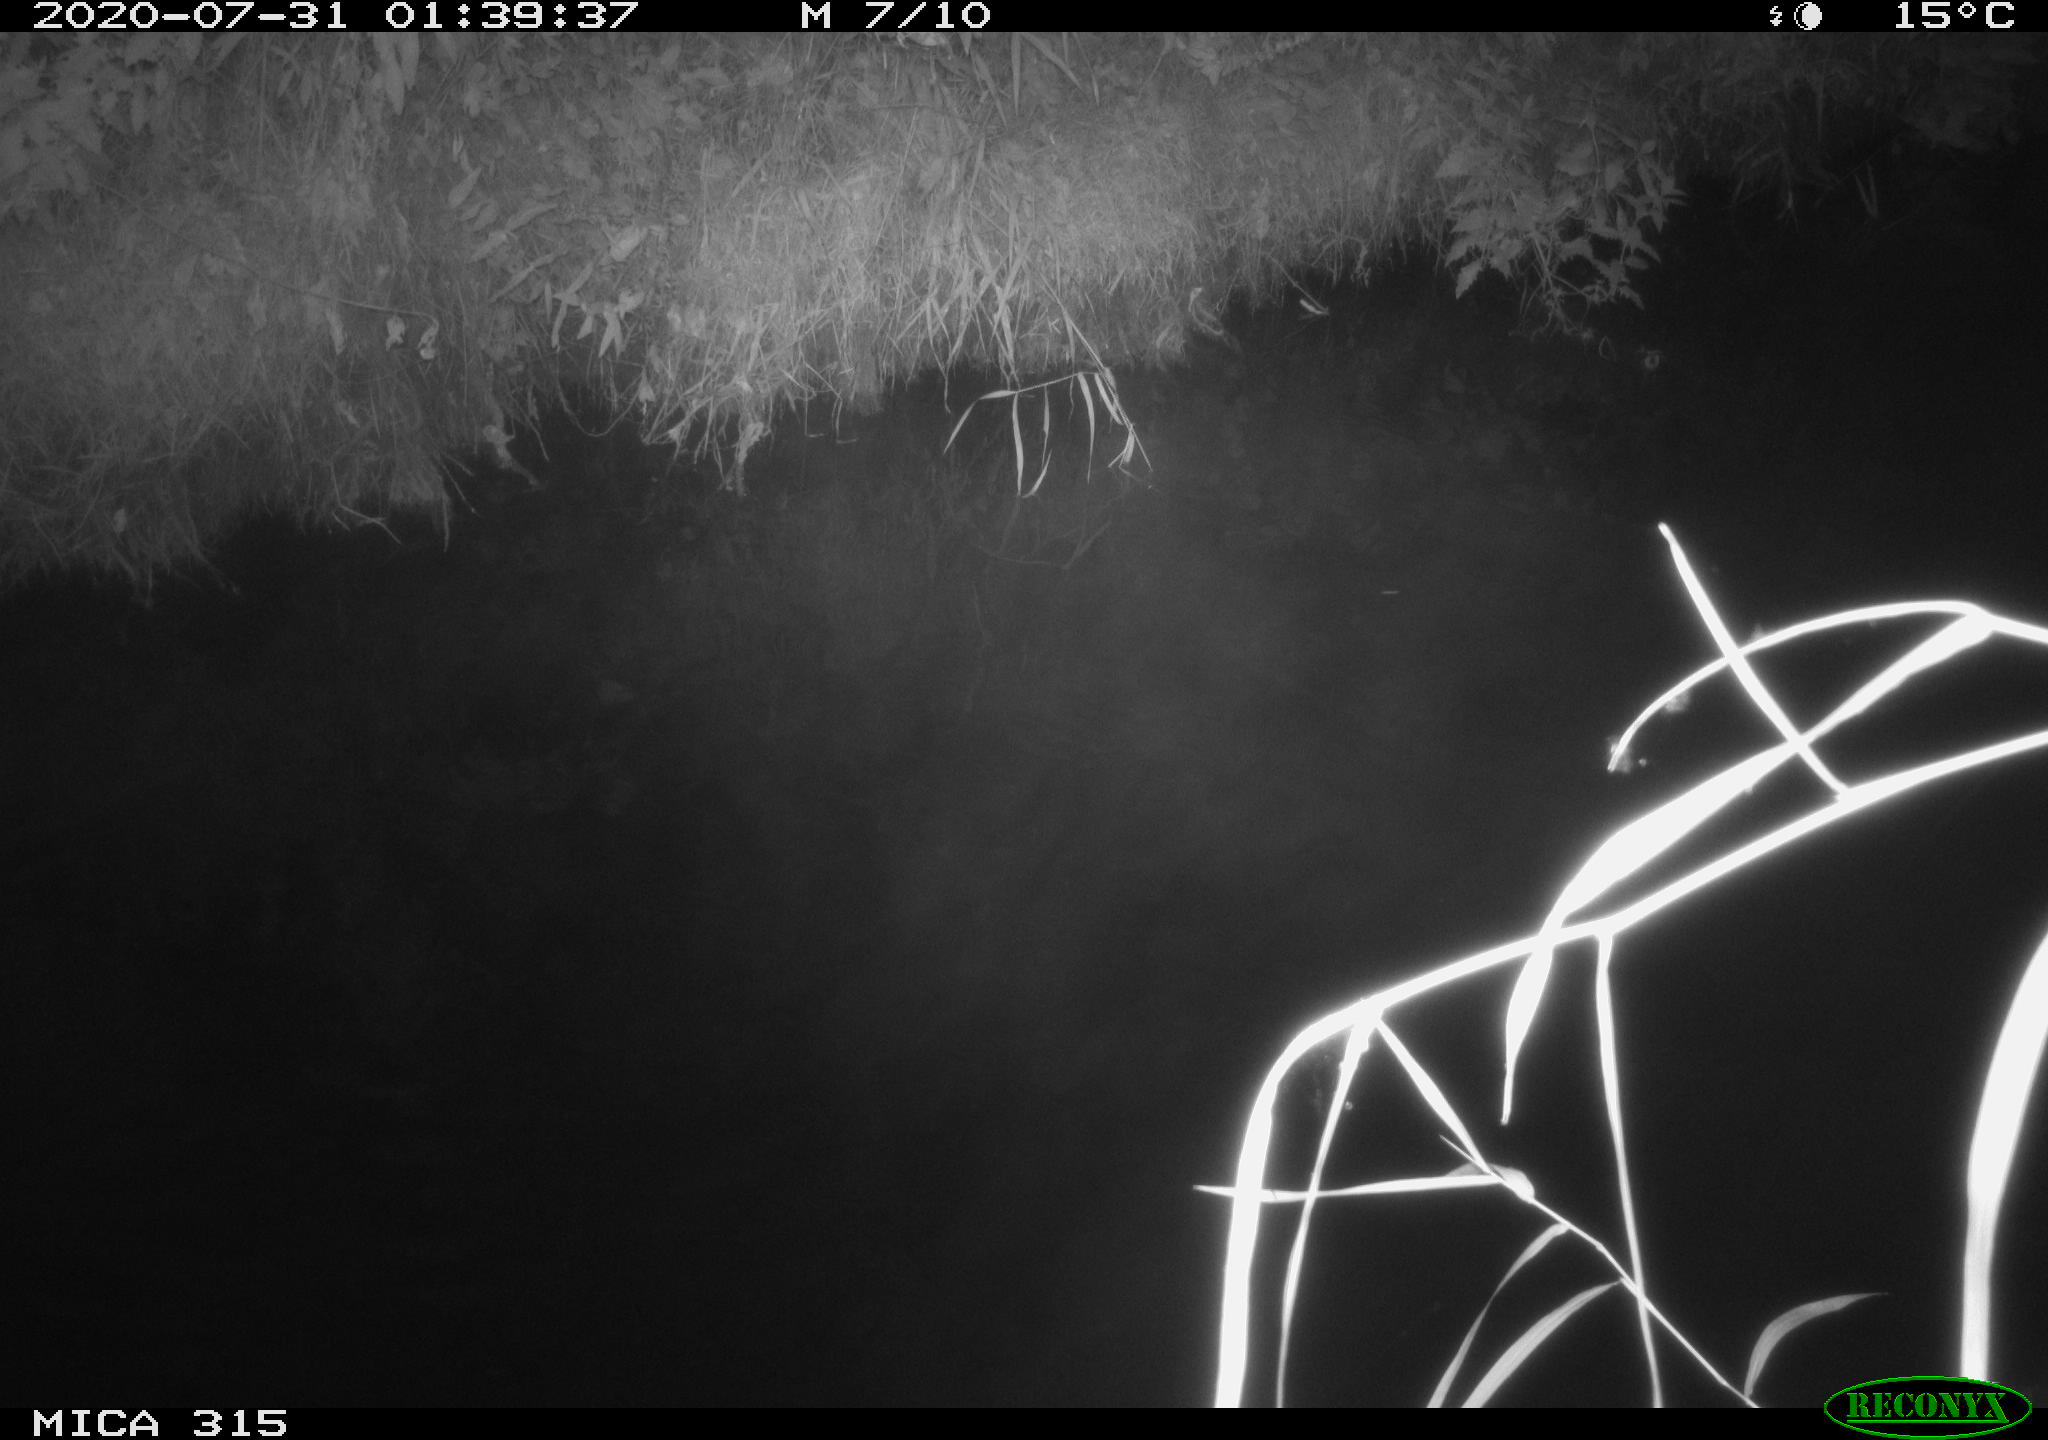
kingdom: Animalia
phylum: Chordata
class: Aves
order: Anseriformes
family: Anatidae
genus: Anas
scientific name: Anas platyrhynchos
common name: Mallard
